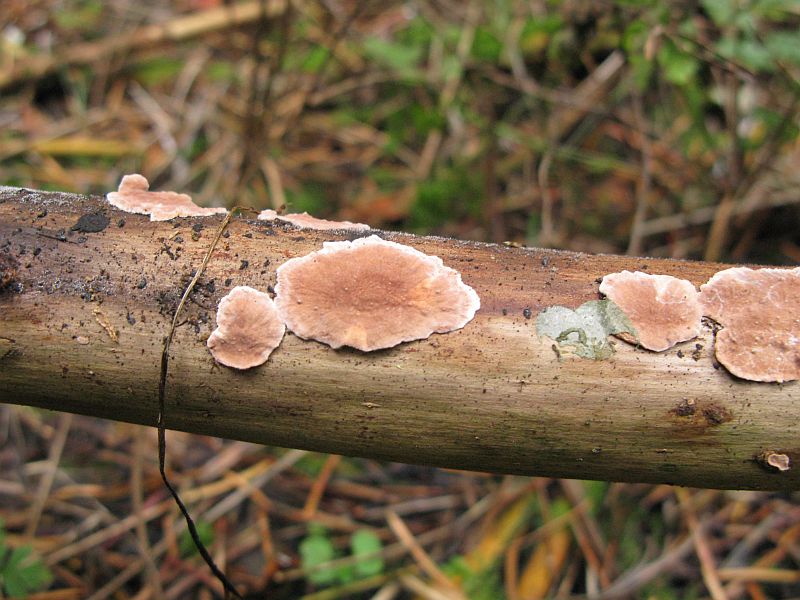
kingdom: Fungi
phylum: Basidiomycota
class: Agaricomycetes
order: Russulales
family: Echinodontiaceae
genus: Amylostereum
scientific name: Amylostereum chailletii
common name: gran-lædersvamp
